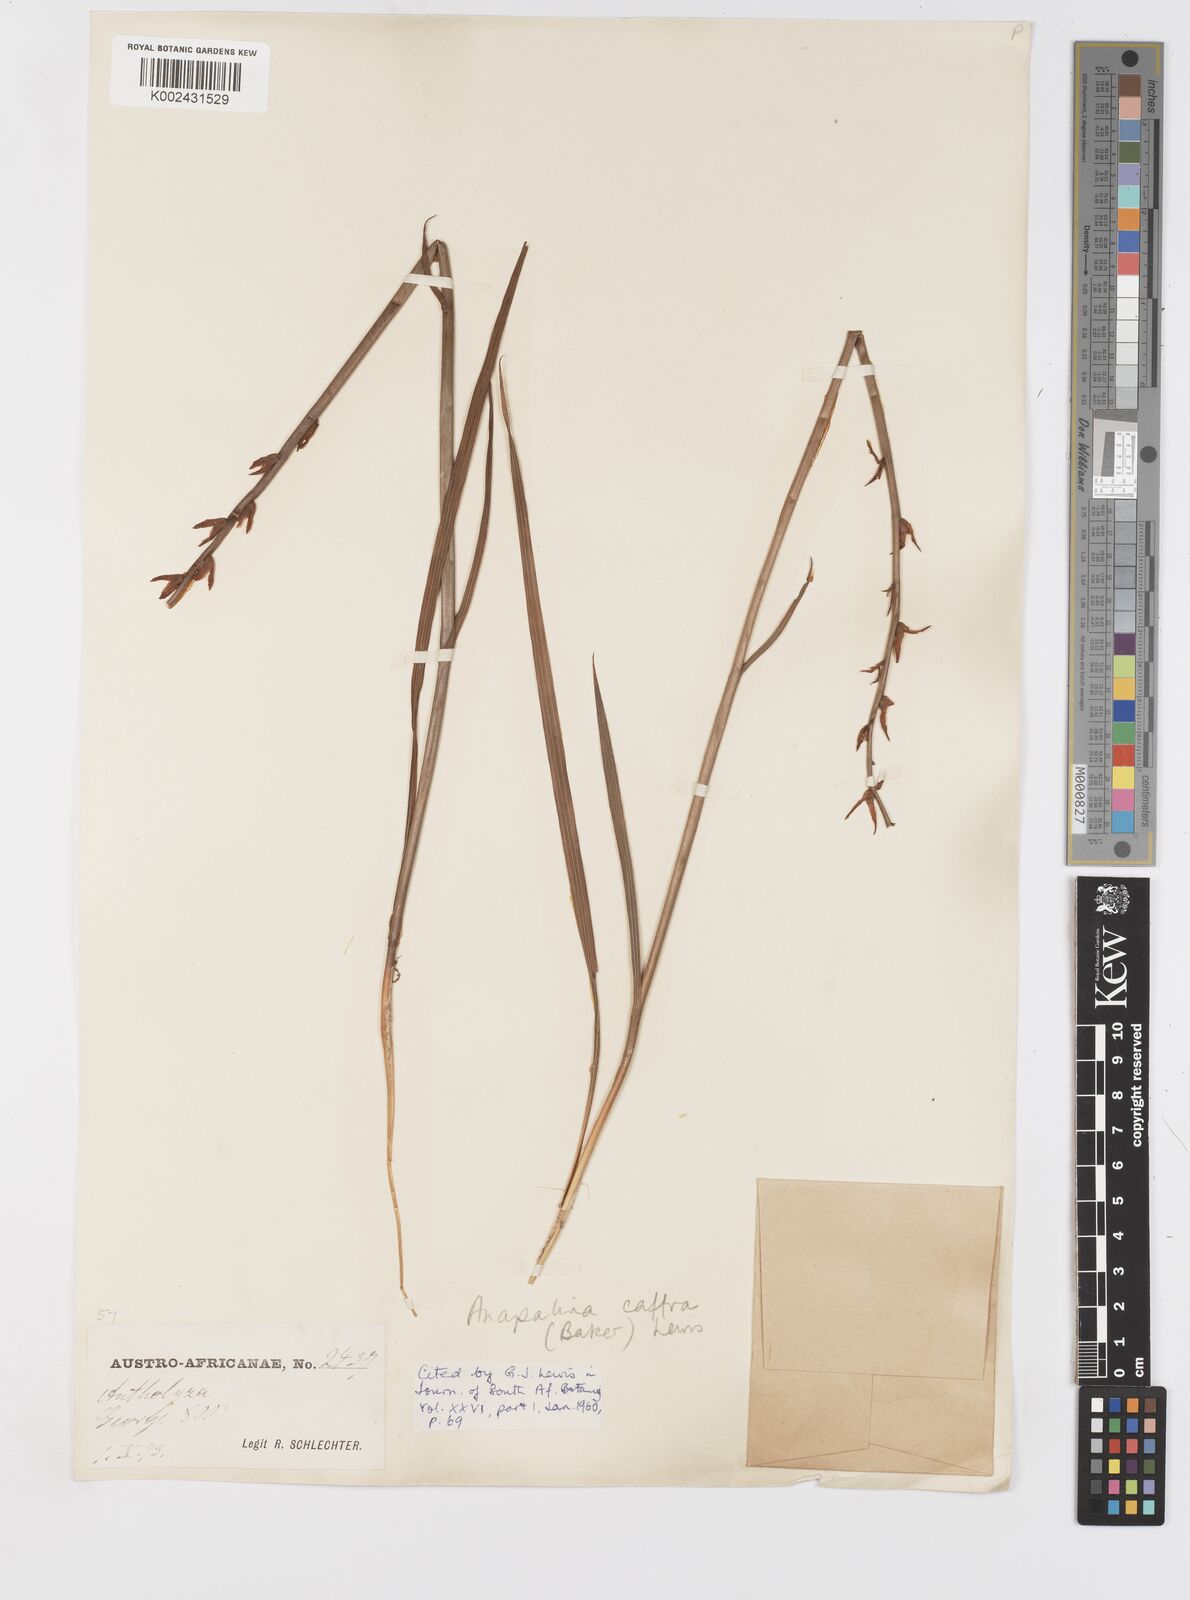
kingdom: Plantae
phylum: Tracheophyta
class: Liliopsida
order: Asparagales
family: Iridaceae
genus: Tritoniopsis
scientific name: Tritoniopsis caffra
